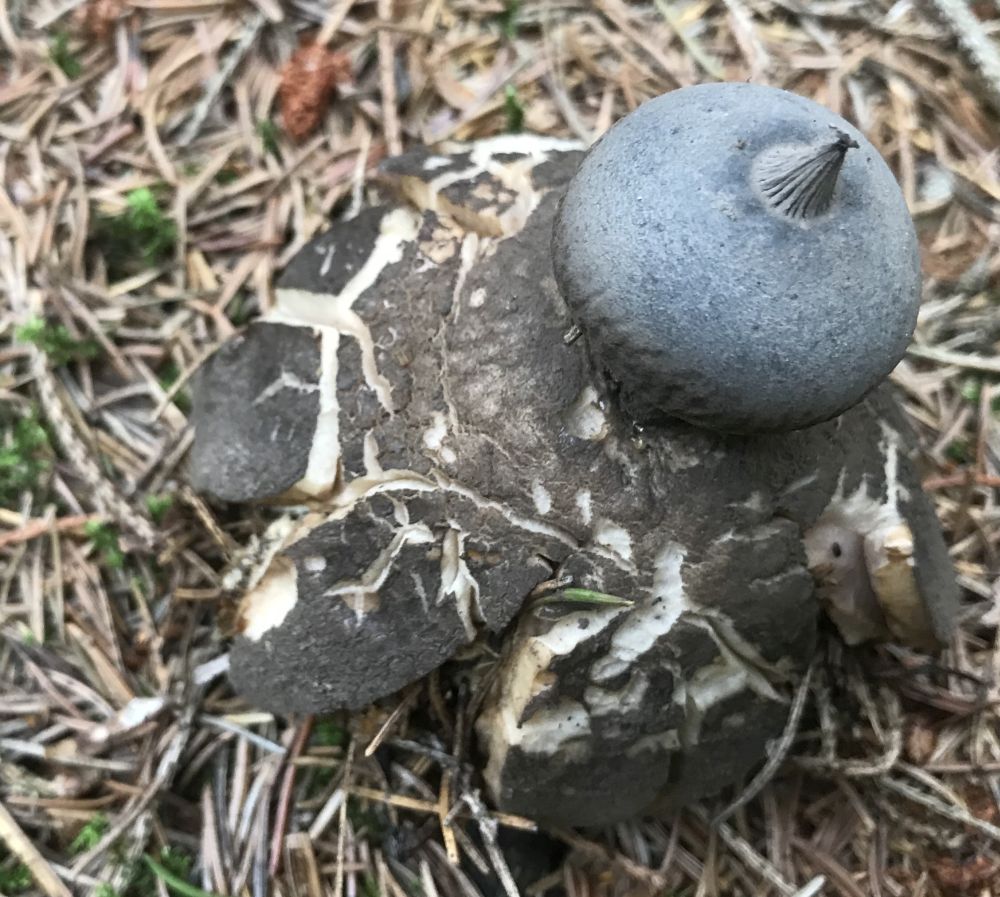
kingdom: Fungi
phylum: Basidiomycota
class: Agaricomycetes
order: Geastrales
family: Geastraceae
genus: Geastrum
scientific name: Geastrum striatum
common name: krave-stjernebold
